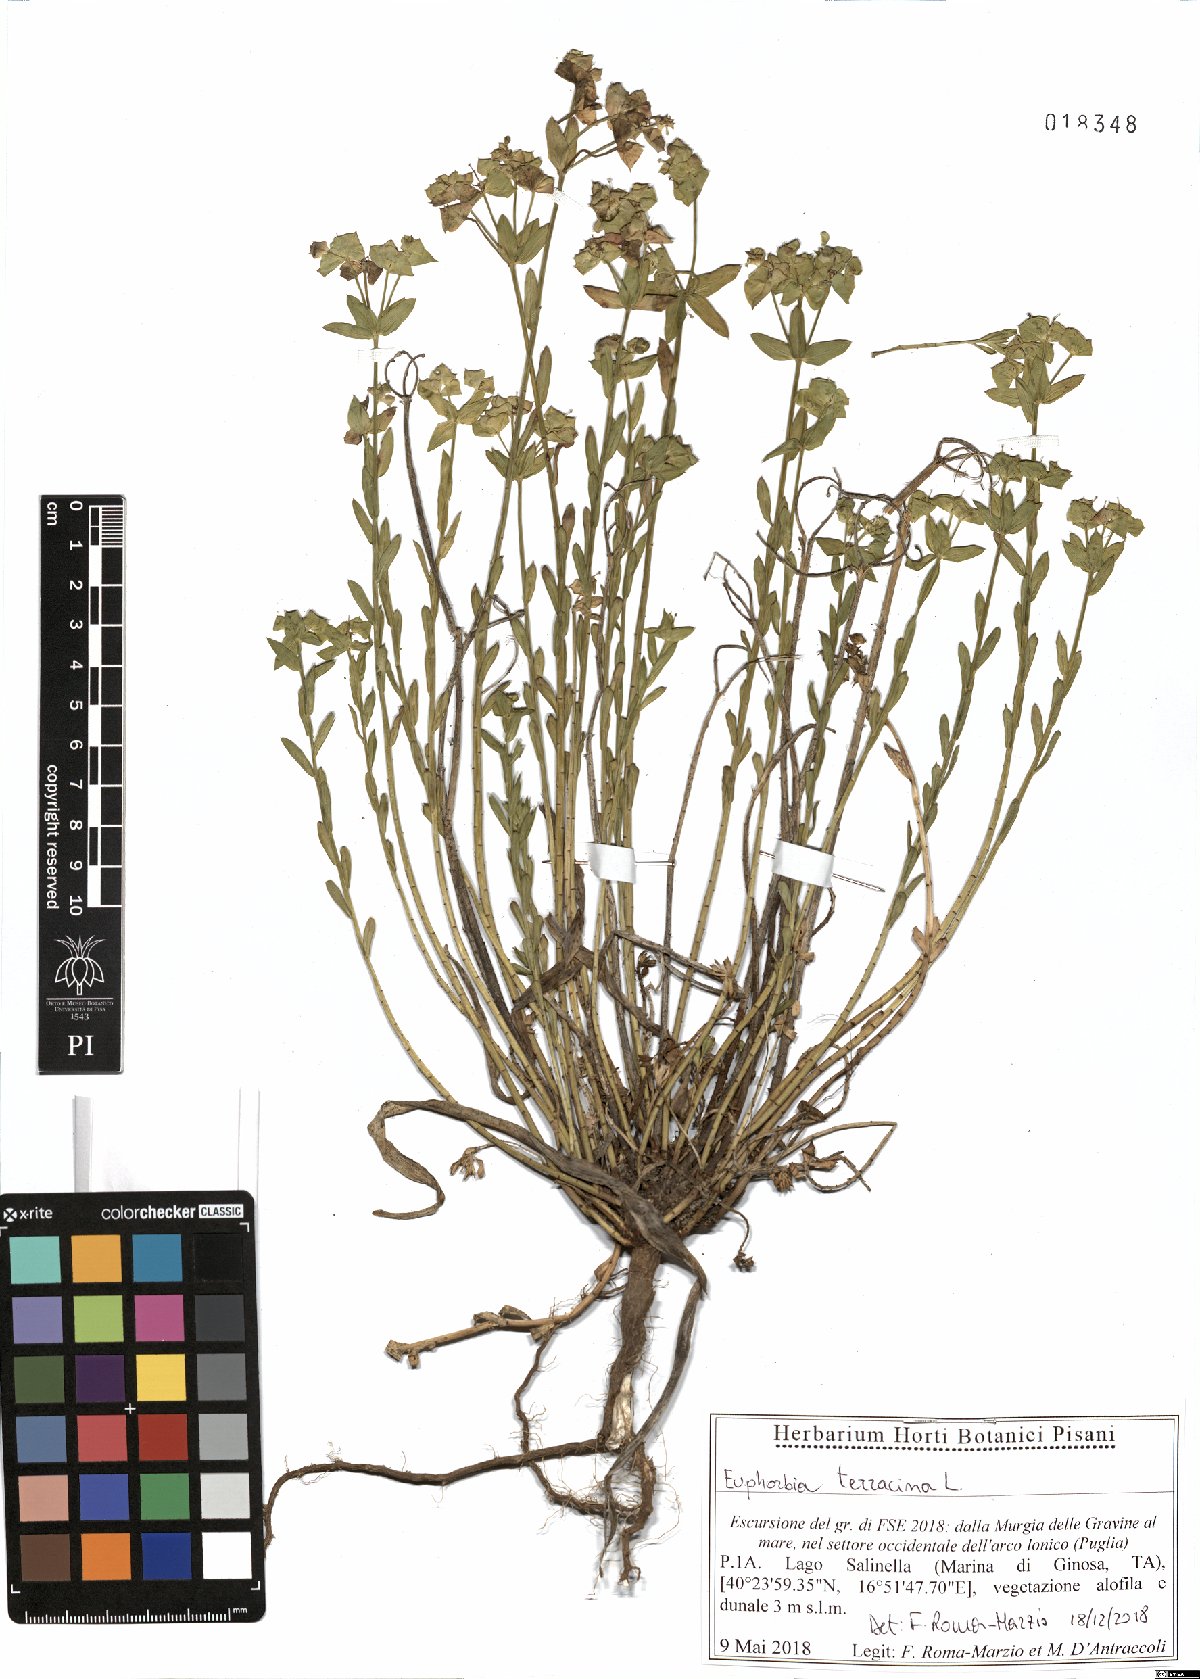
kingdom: Plantae
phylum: Tracheophyta
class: Magnoliopsida
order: Malpighiales
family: Euphorbiaceae
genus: Euphorbia
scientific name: Euphorbia terracina
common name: Geraldton carnation weed
